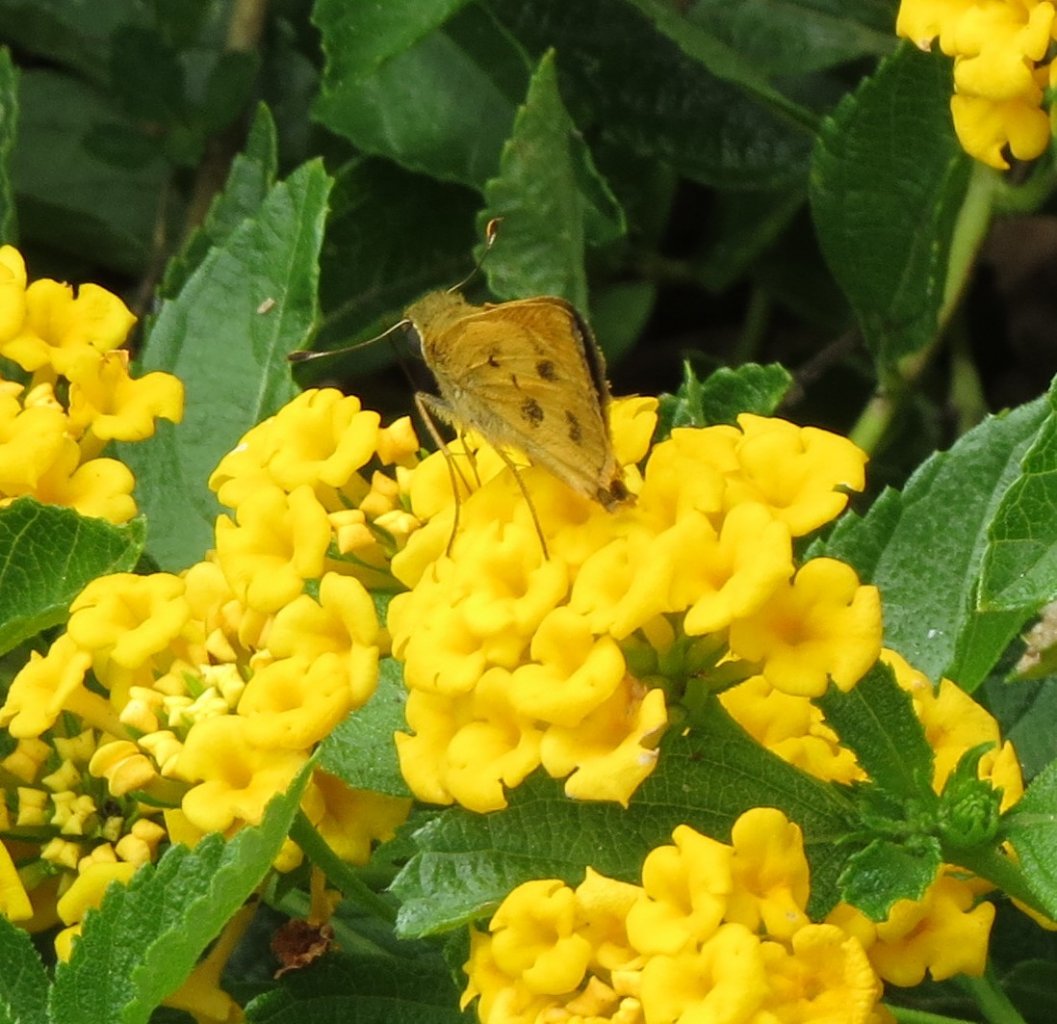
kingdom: Animalia
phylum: Arthropoda
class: Insecta
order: Lepidoptera
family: Hesperiidae
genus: Polites
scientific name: Polites vibex
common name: Whirlabout
